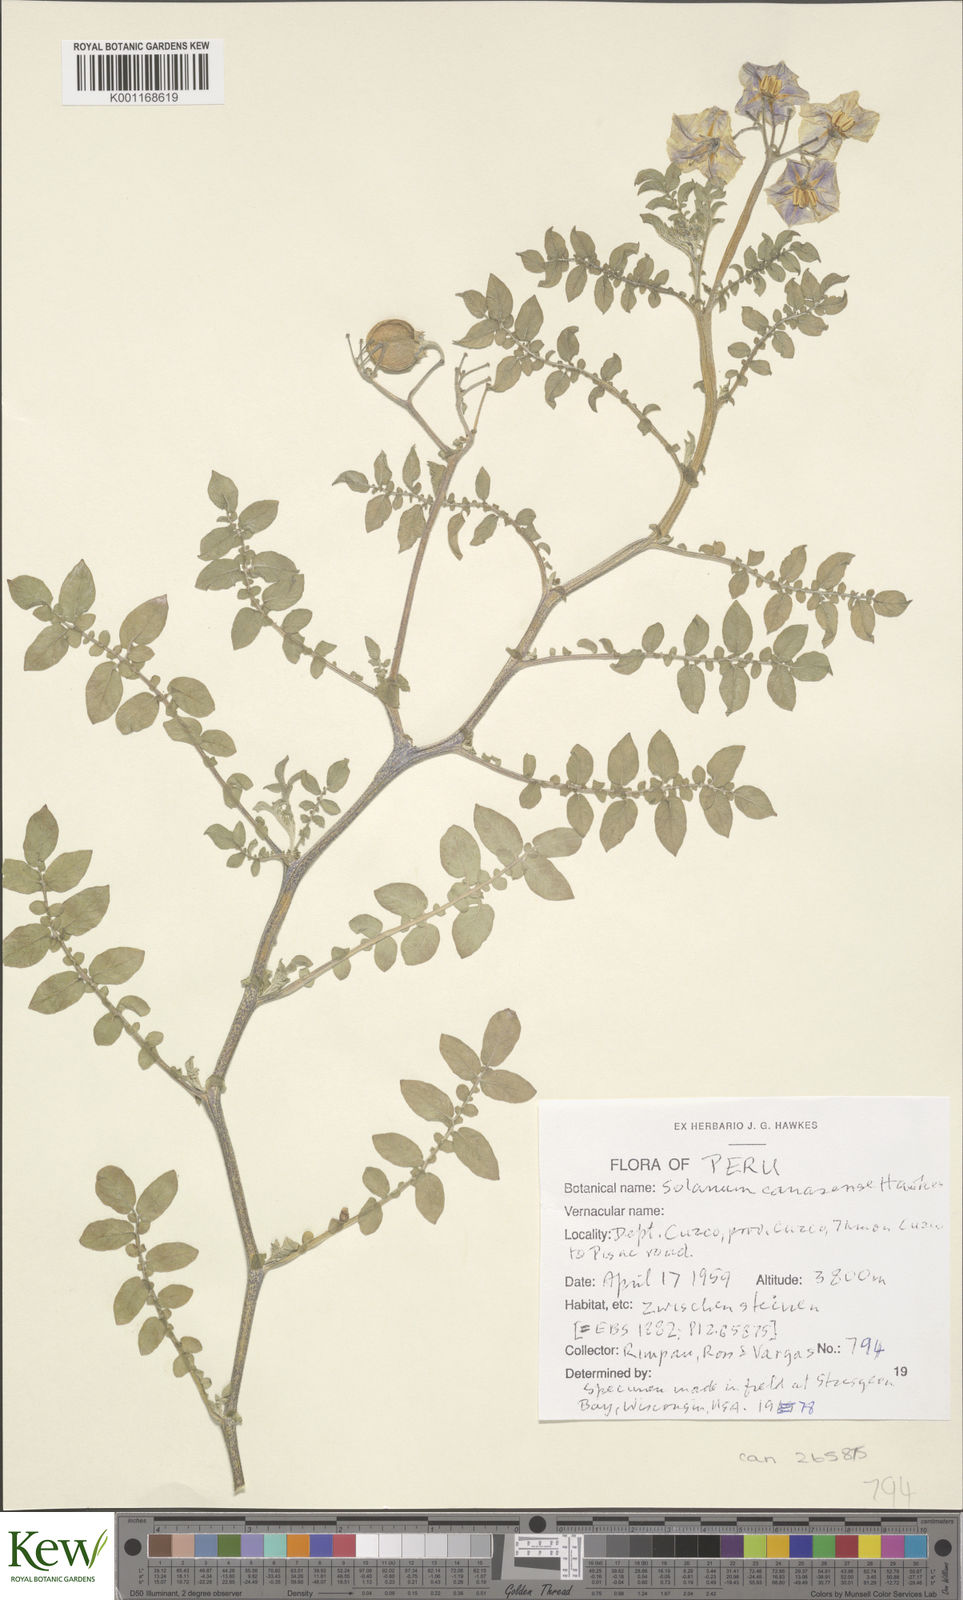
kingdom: Plantae
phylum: Tracheophyta
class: Magnoliopsida
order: Solanales
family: Solanaceae
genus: Solanum
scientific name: Solanum candolleanum
